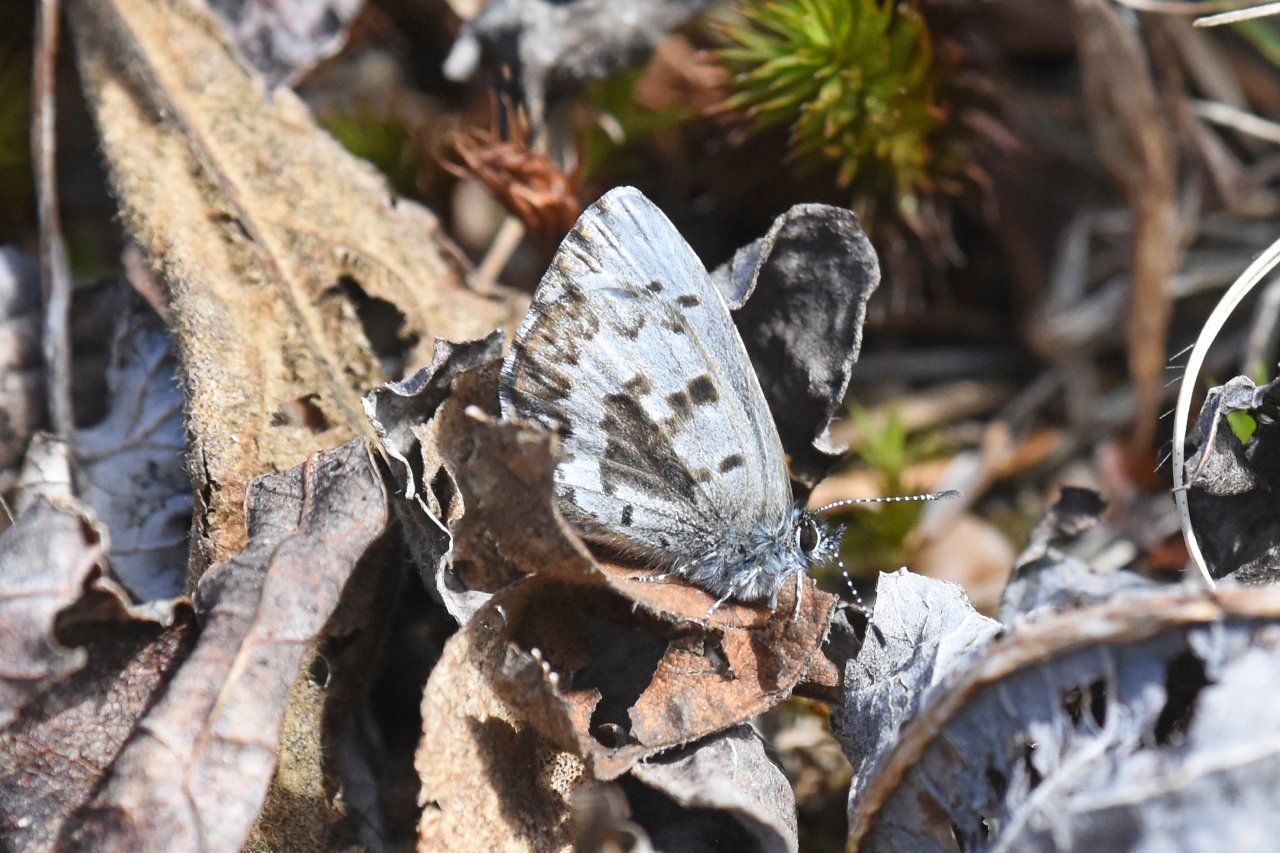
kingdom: Animalia
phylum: Arthropoda
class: Insecta
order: Lepidoptera
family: Lycaenidae
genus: Celastrina
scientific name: Celastrina lucia
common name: Northern Spring Azure
